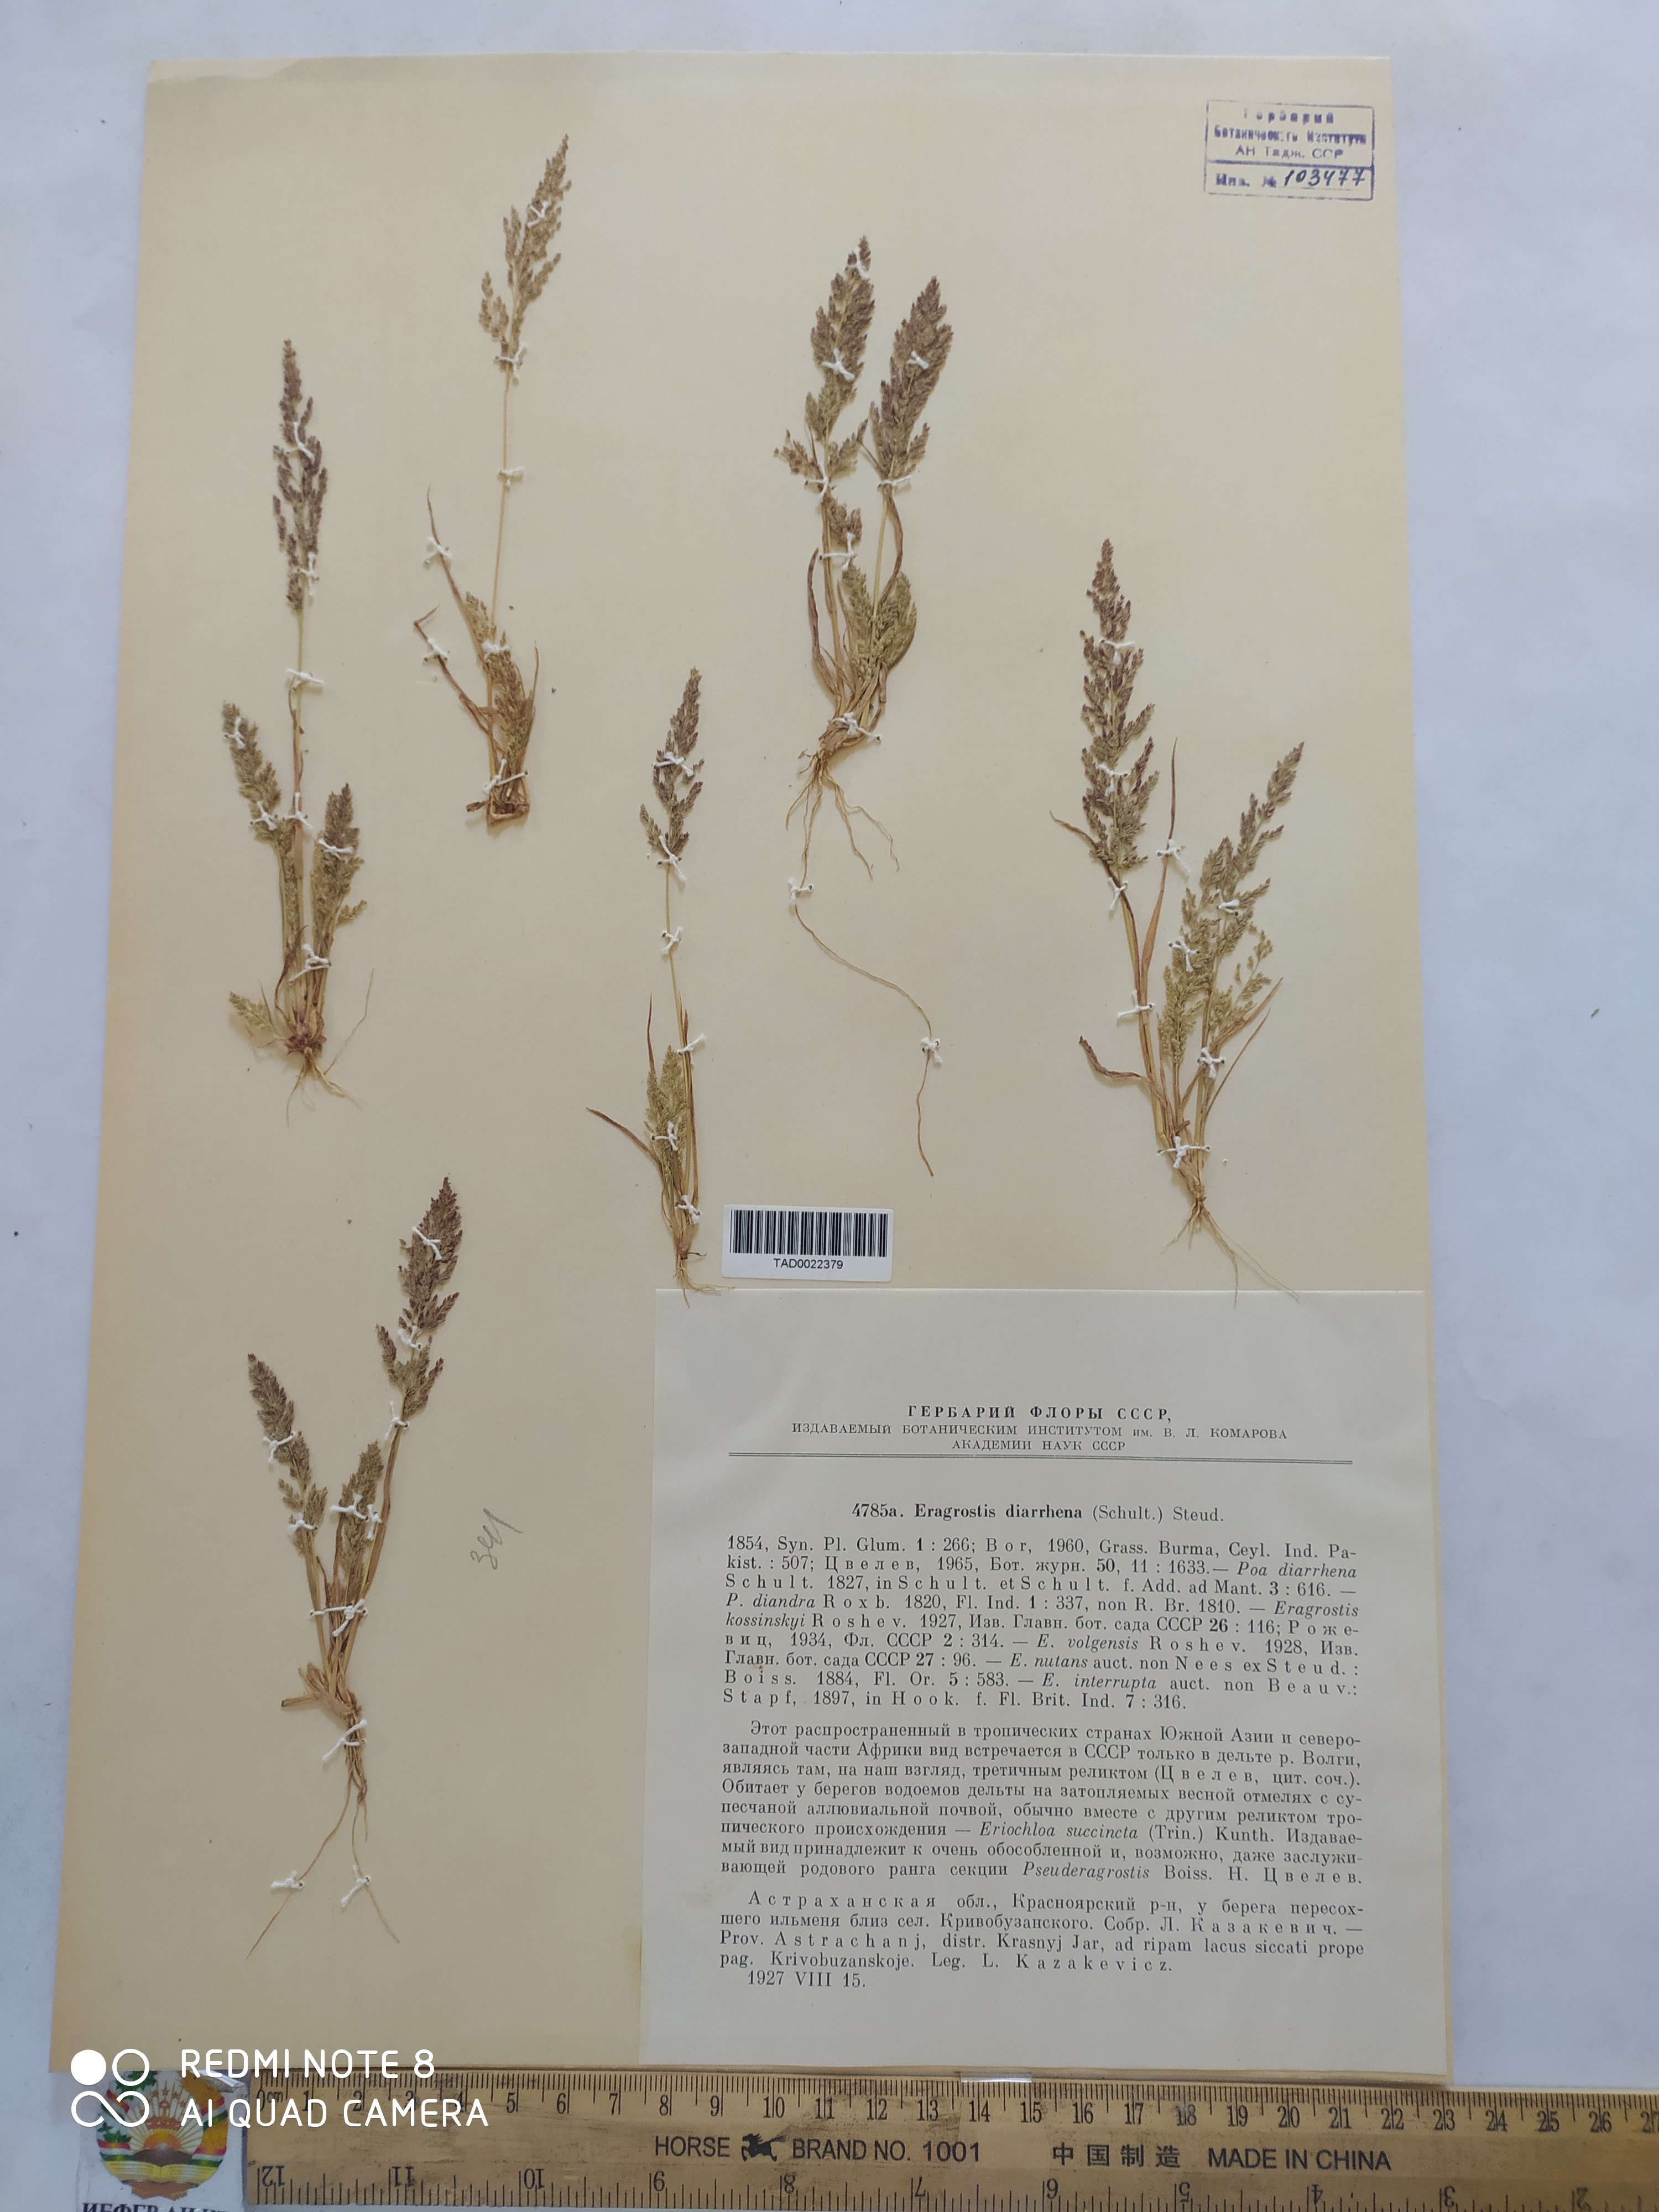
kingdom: Plantae
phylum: Tracheophyta
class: Liliopsida
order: Poales
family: Poaceae
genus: Eragrostis
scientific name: Eragrostis japonica
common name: Pond lovegrass
